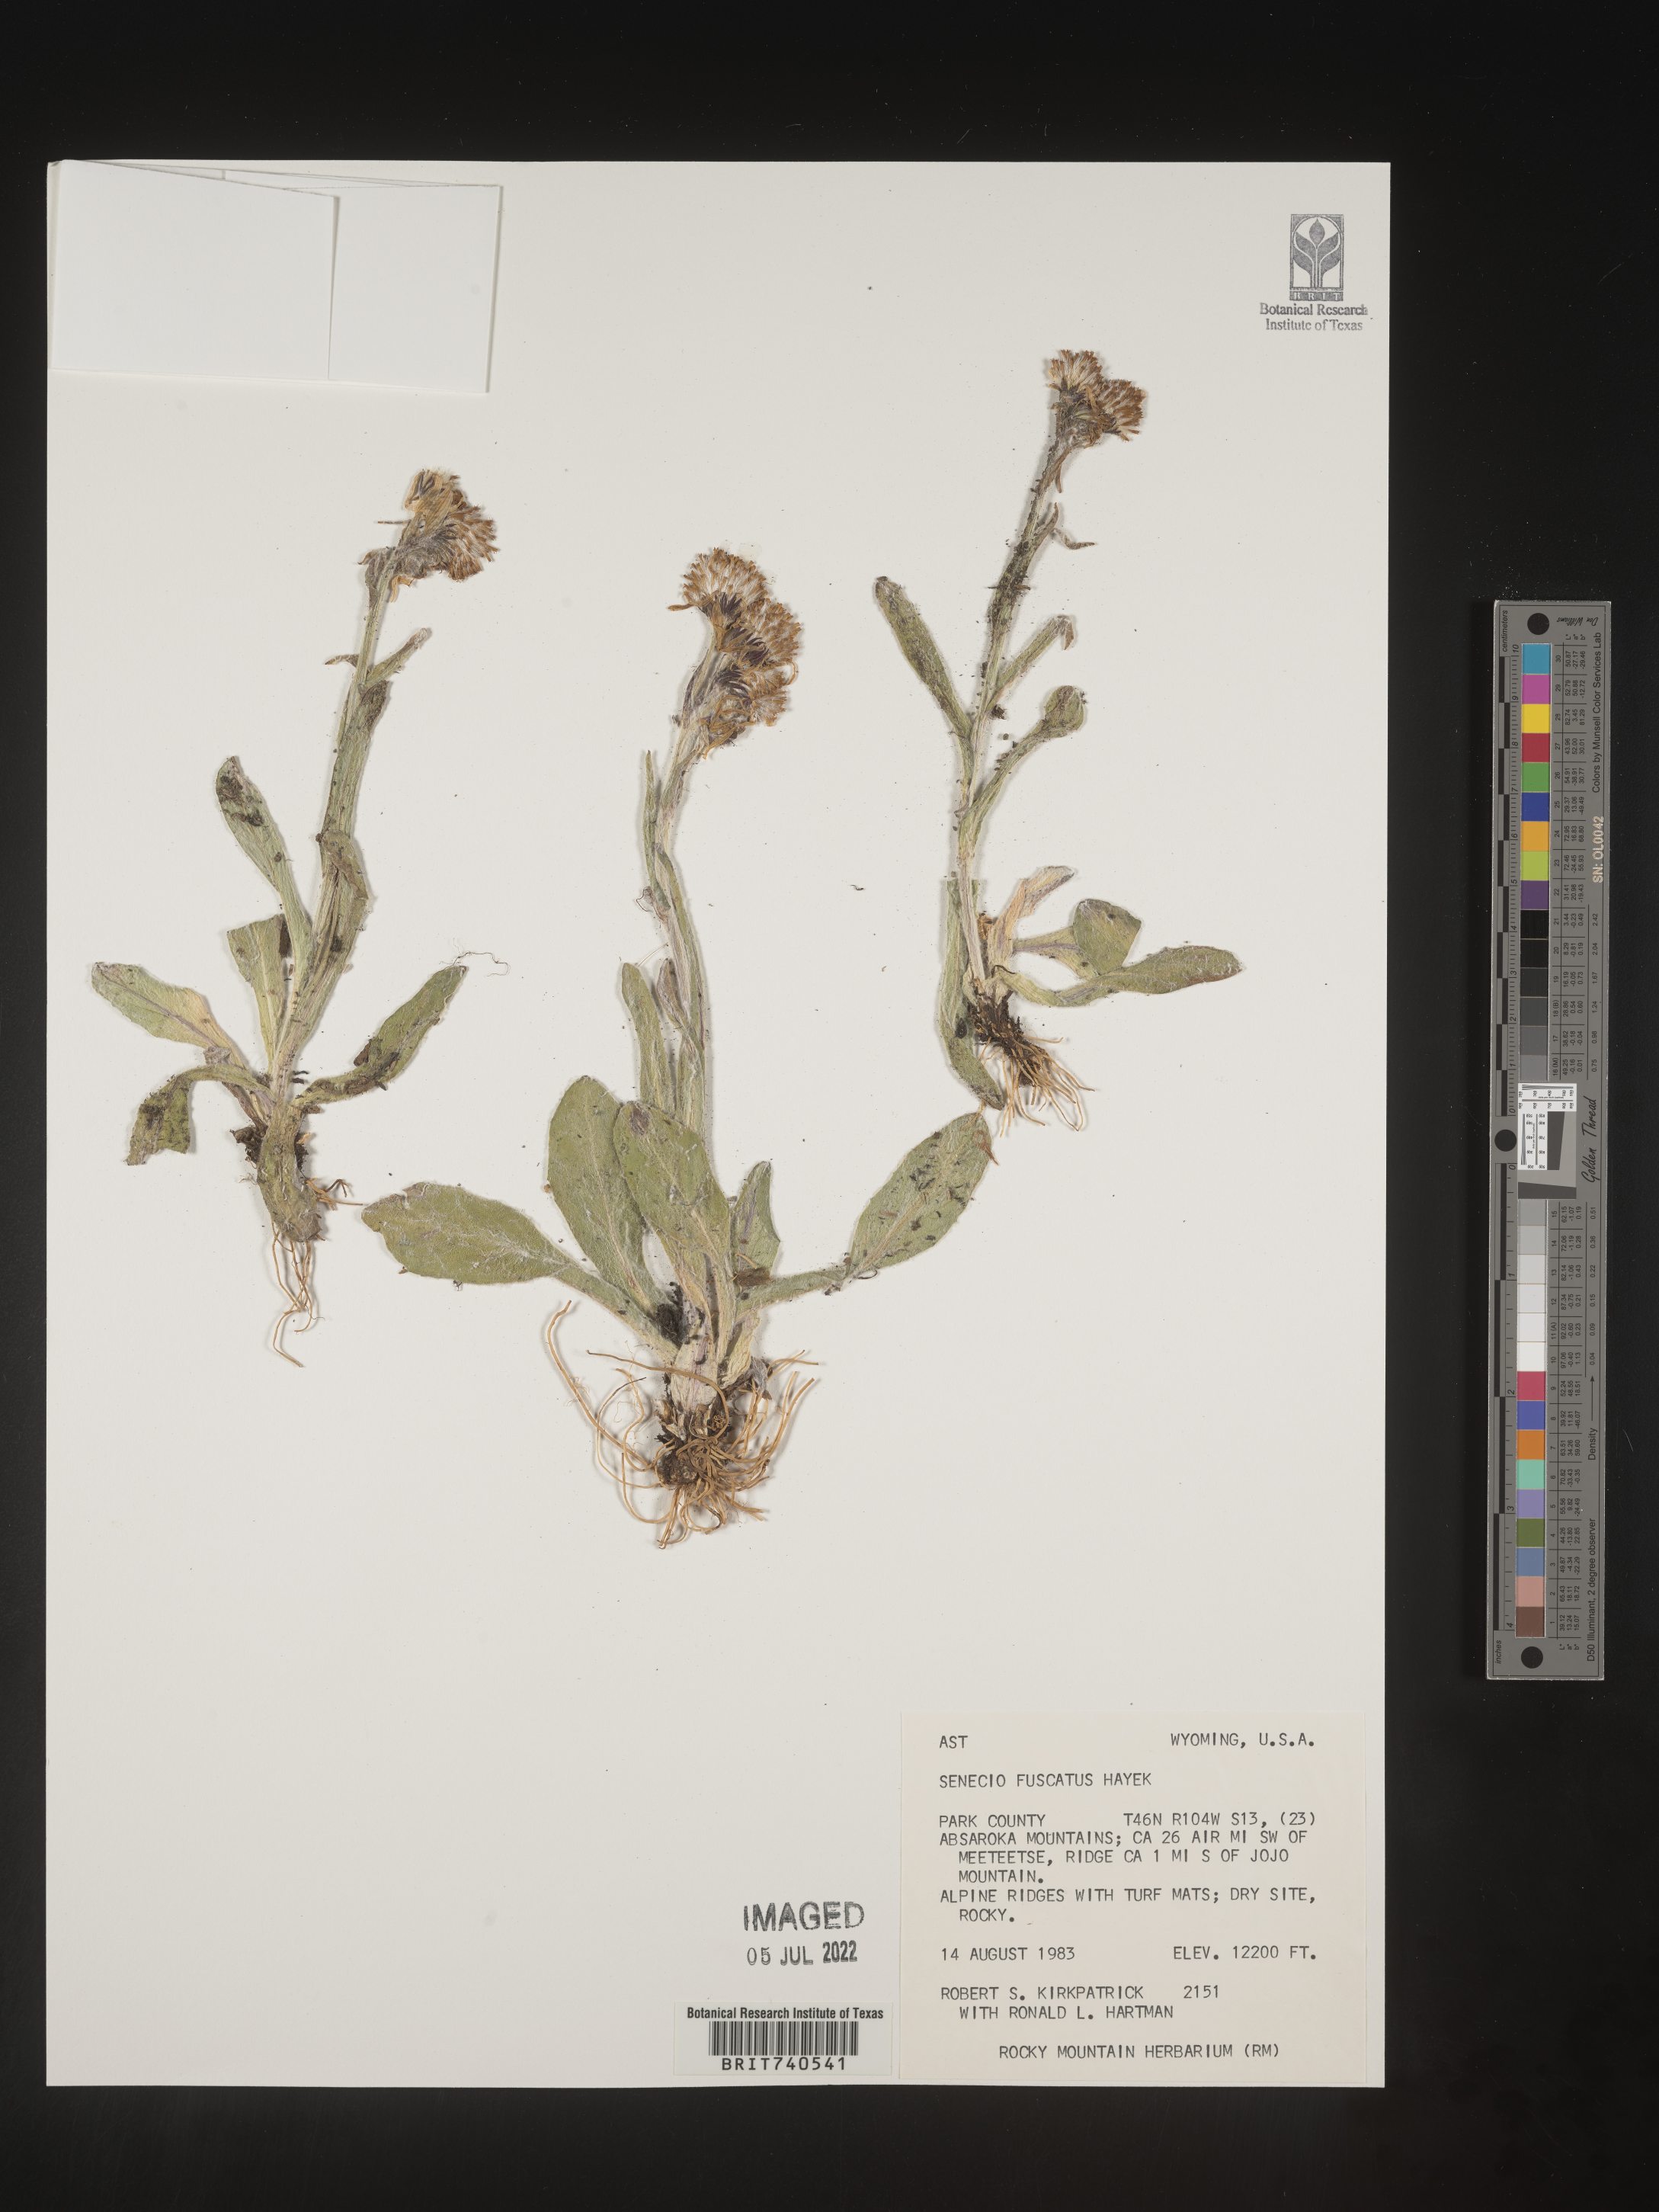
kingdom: Plantae
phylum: Tracheophyta
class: Magnoliopsida
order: Asterales
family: Asteraceae
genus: Senecio
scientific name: Senecio fuscatus
